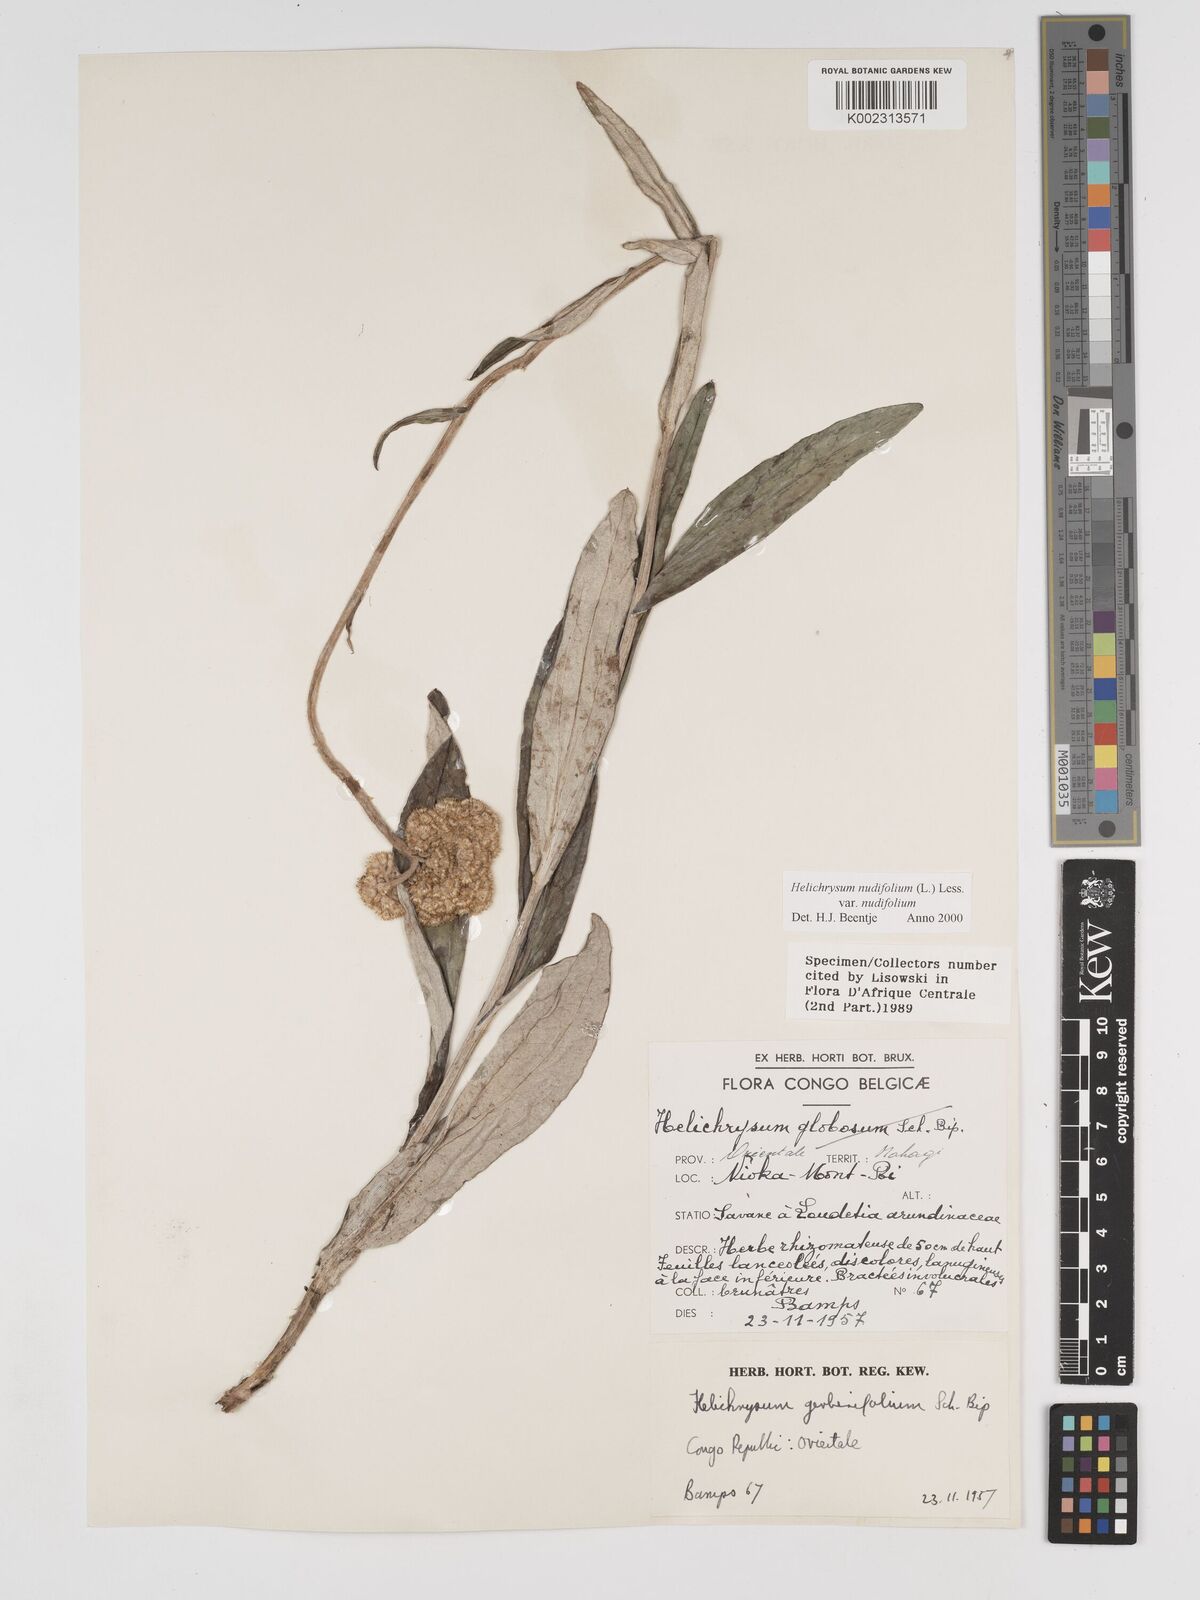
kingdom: Plantae
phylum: Tracheophyta
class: Magnoliopsida
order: Asterales
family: Asteraceae
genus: Helichrysum
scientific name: Helichrysum nudifolium
